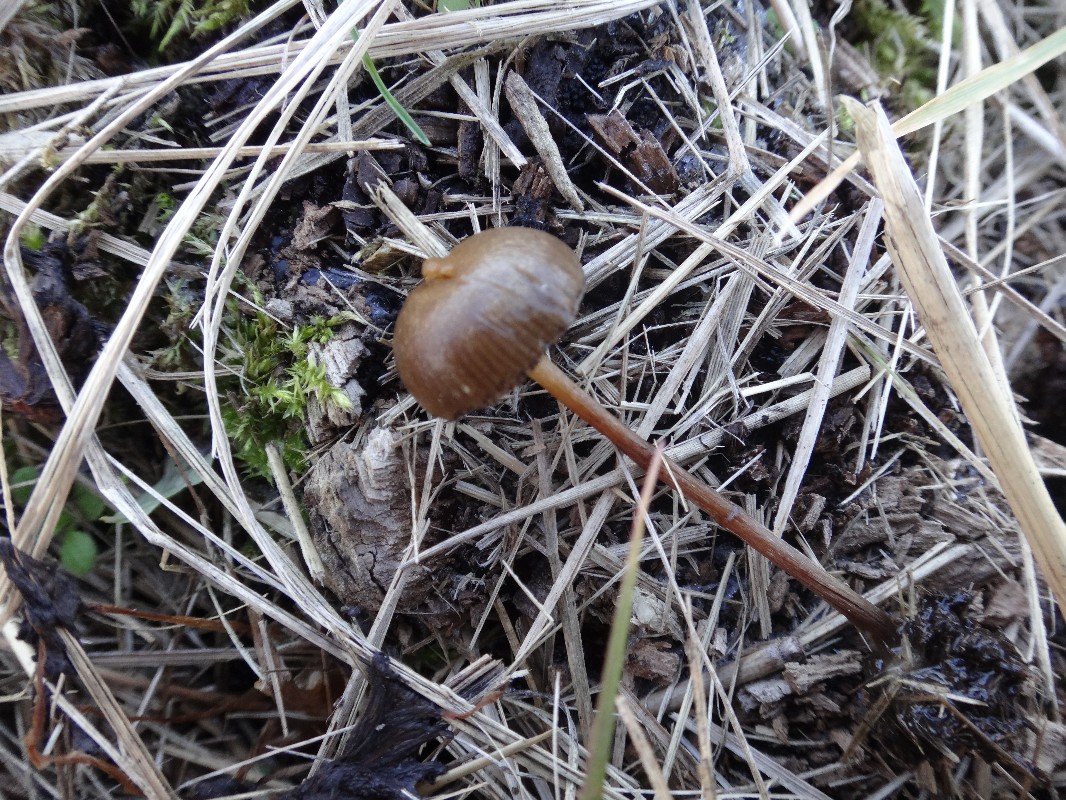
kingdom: Fungi
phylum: Basidiomycota
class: Agaricomycetes
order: Agaricales
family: Hymenogastraceae
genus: Psilocybe
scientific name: Psilocybe fimetaria
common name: prægtig nøgenhat
